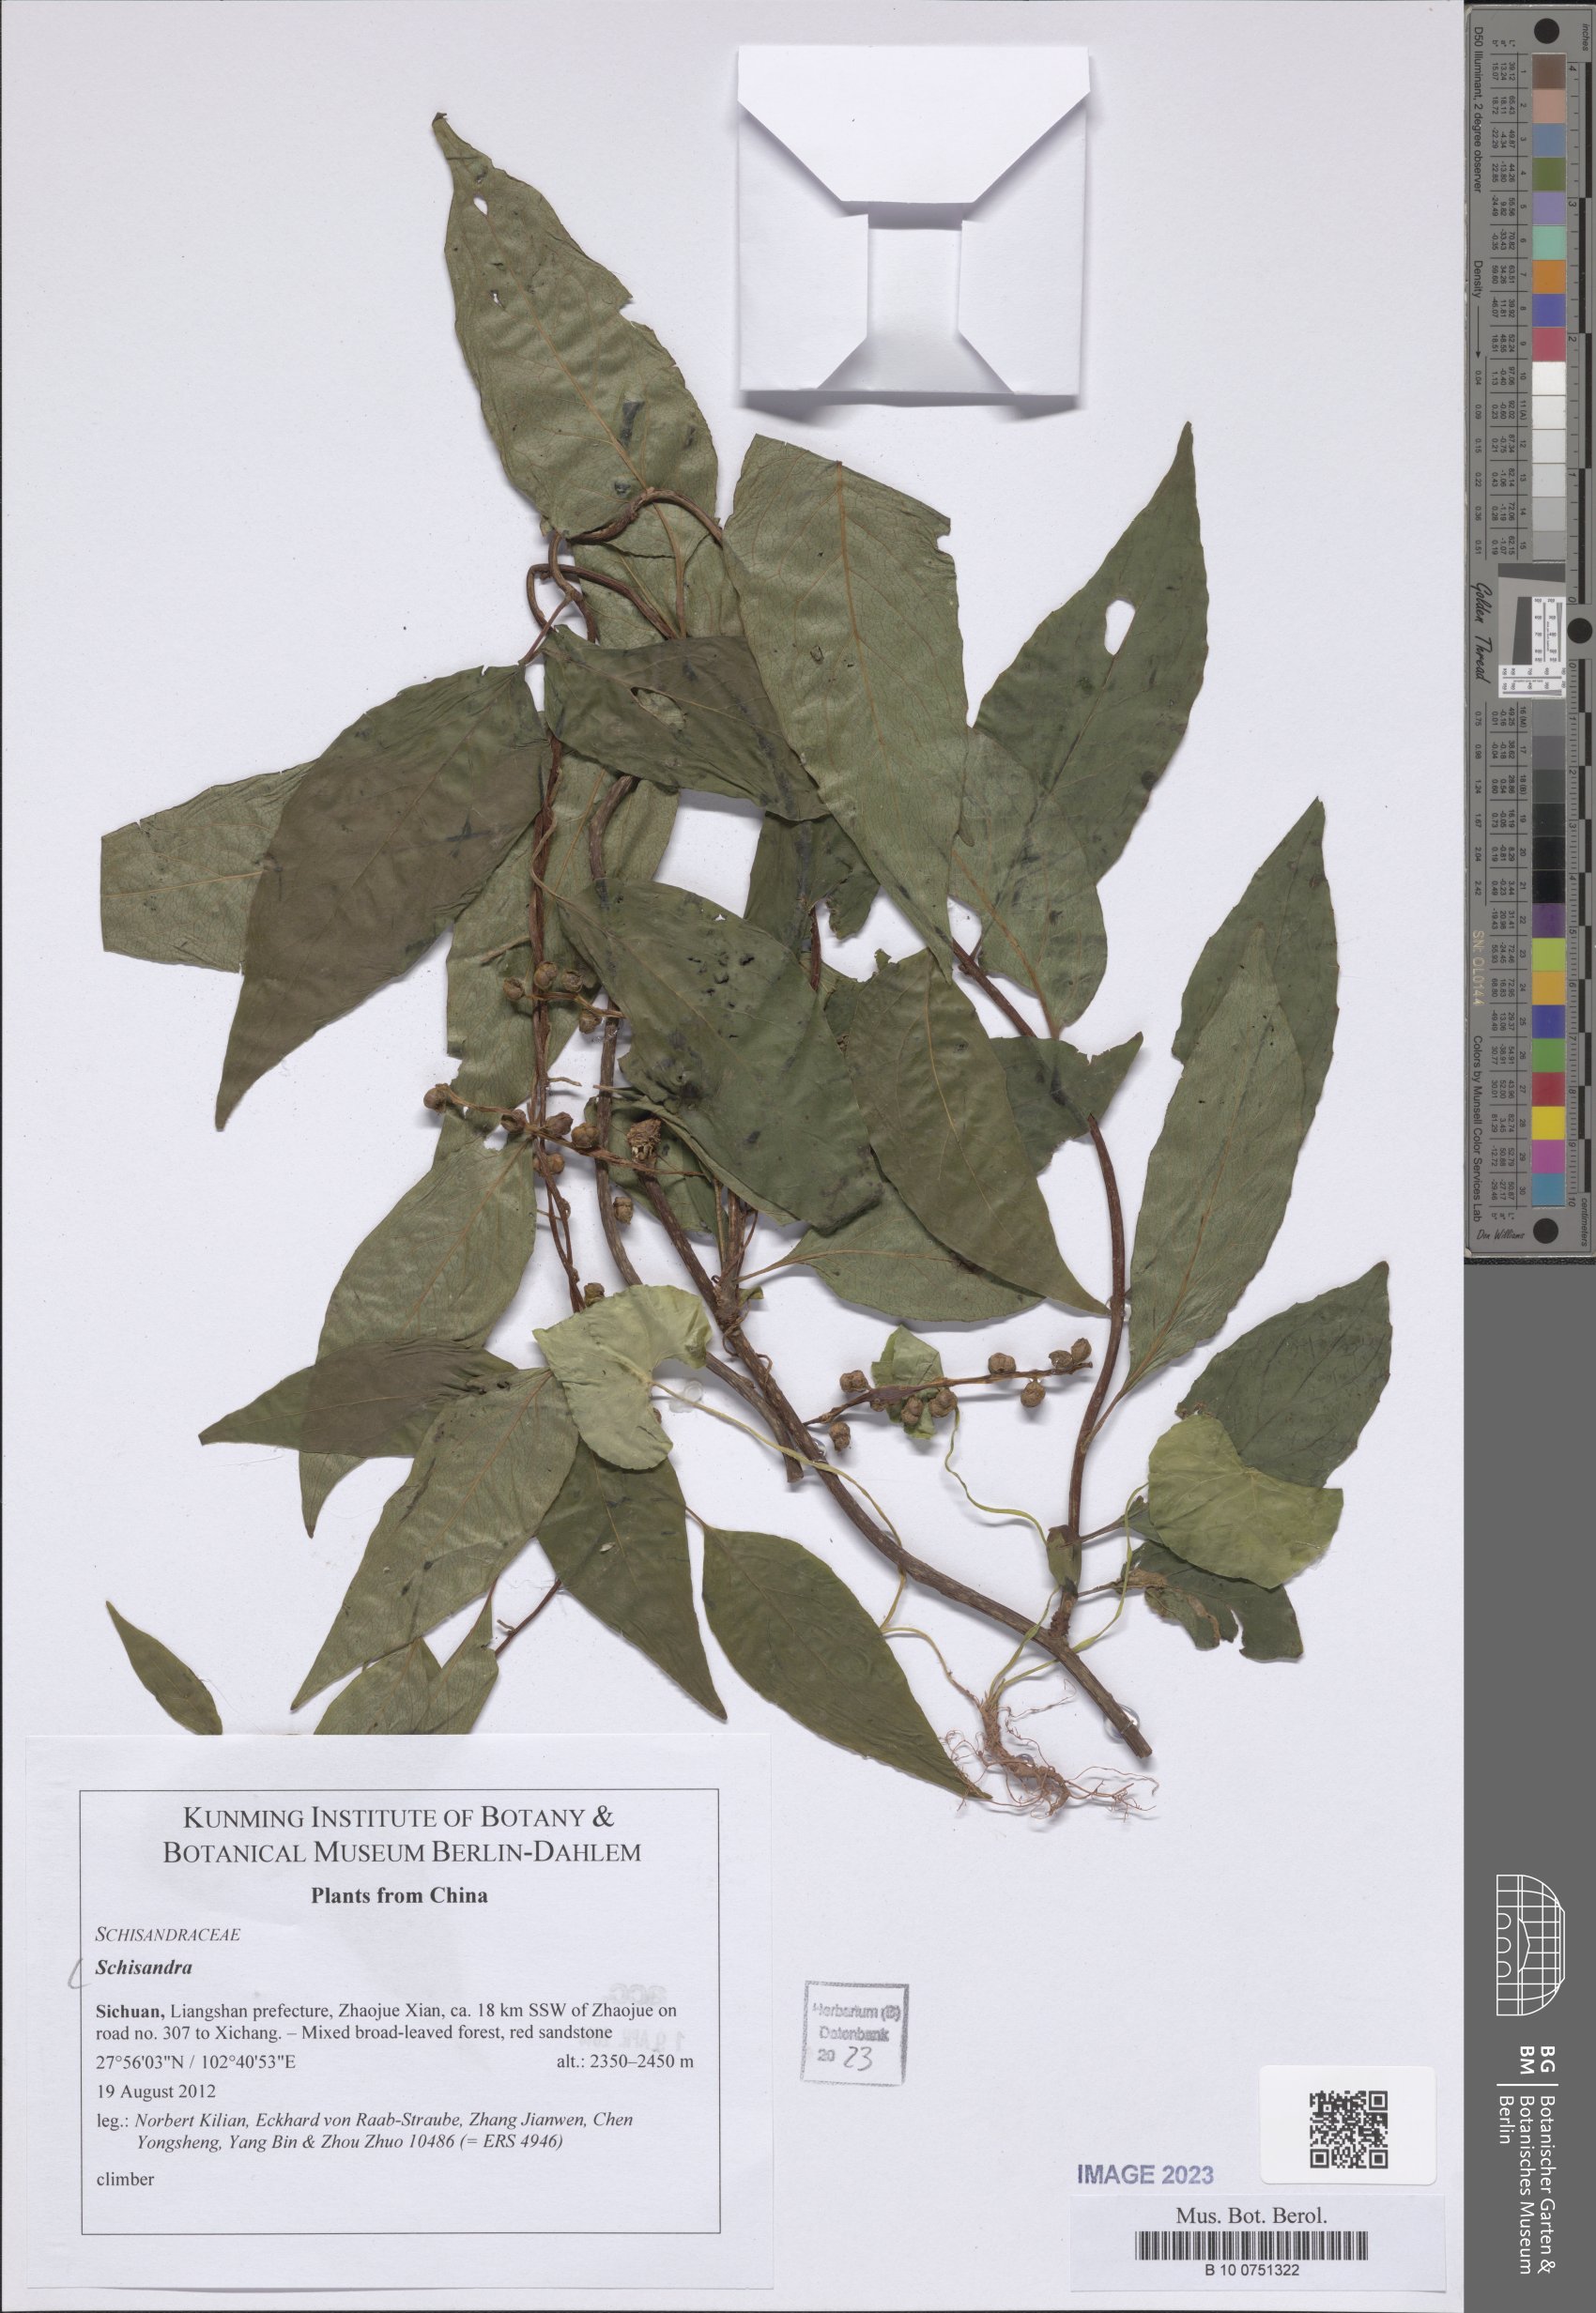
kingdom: Plantae
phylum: Tracheophyta
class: Magnoliopsida
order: Austrobaileyales
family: Schisandraceae
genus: Schisandra
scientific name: Schisandra
